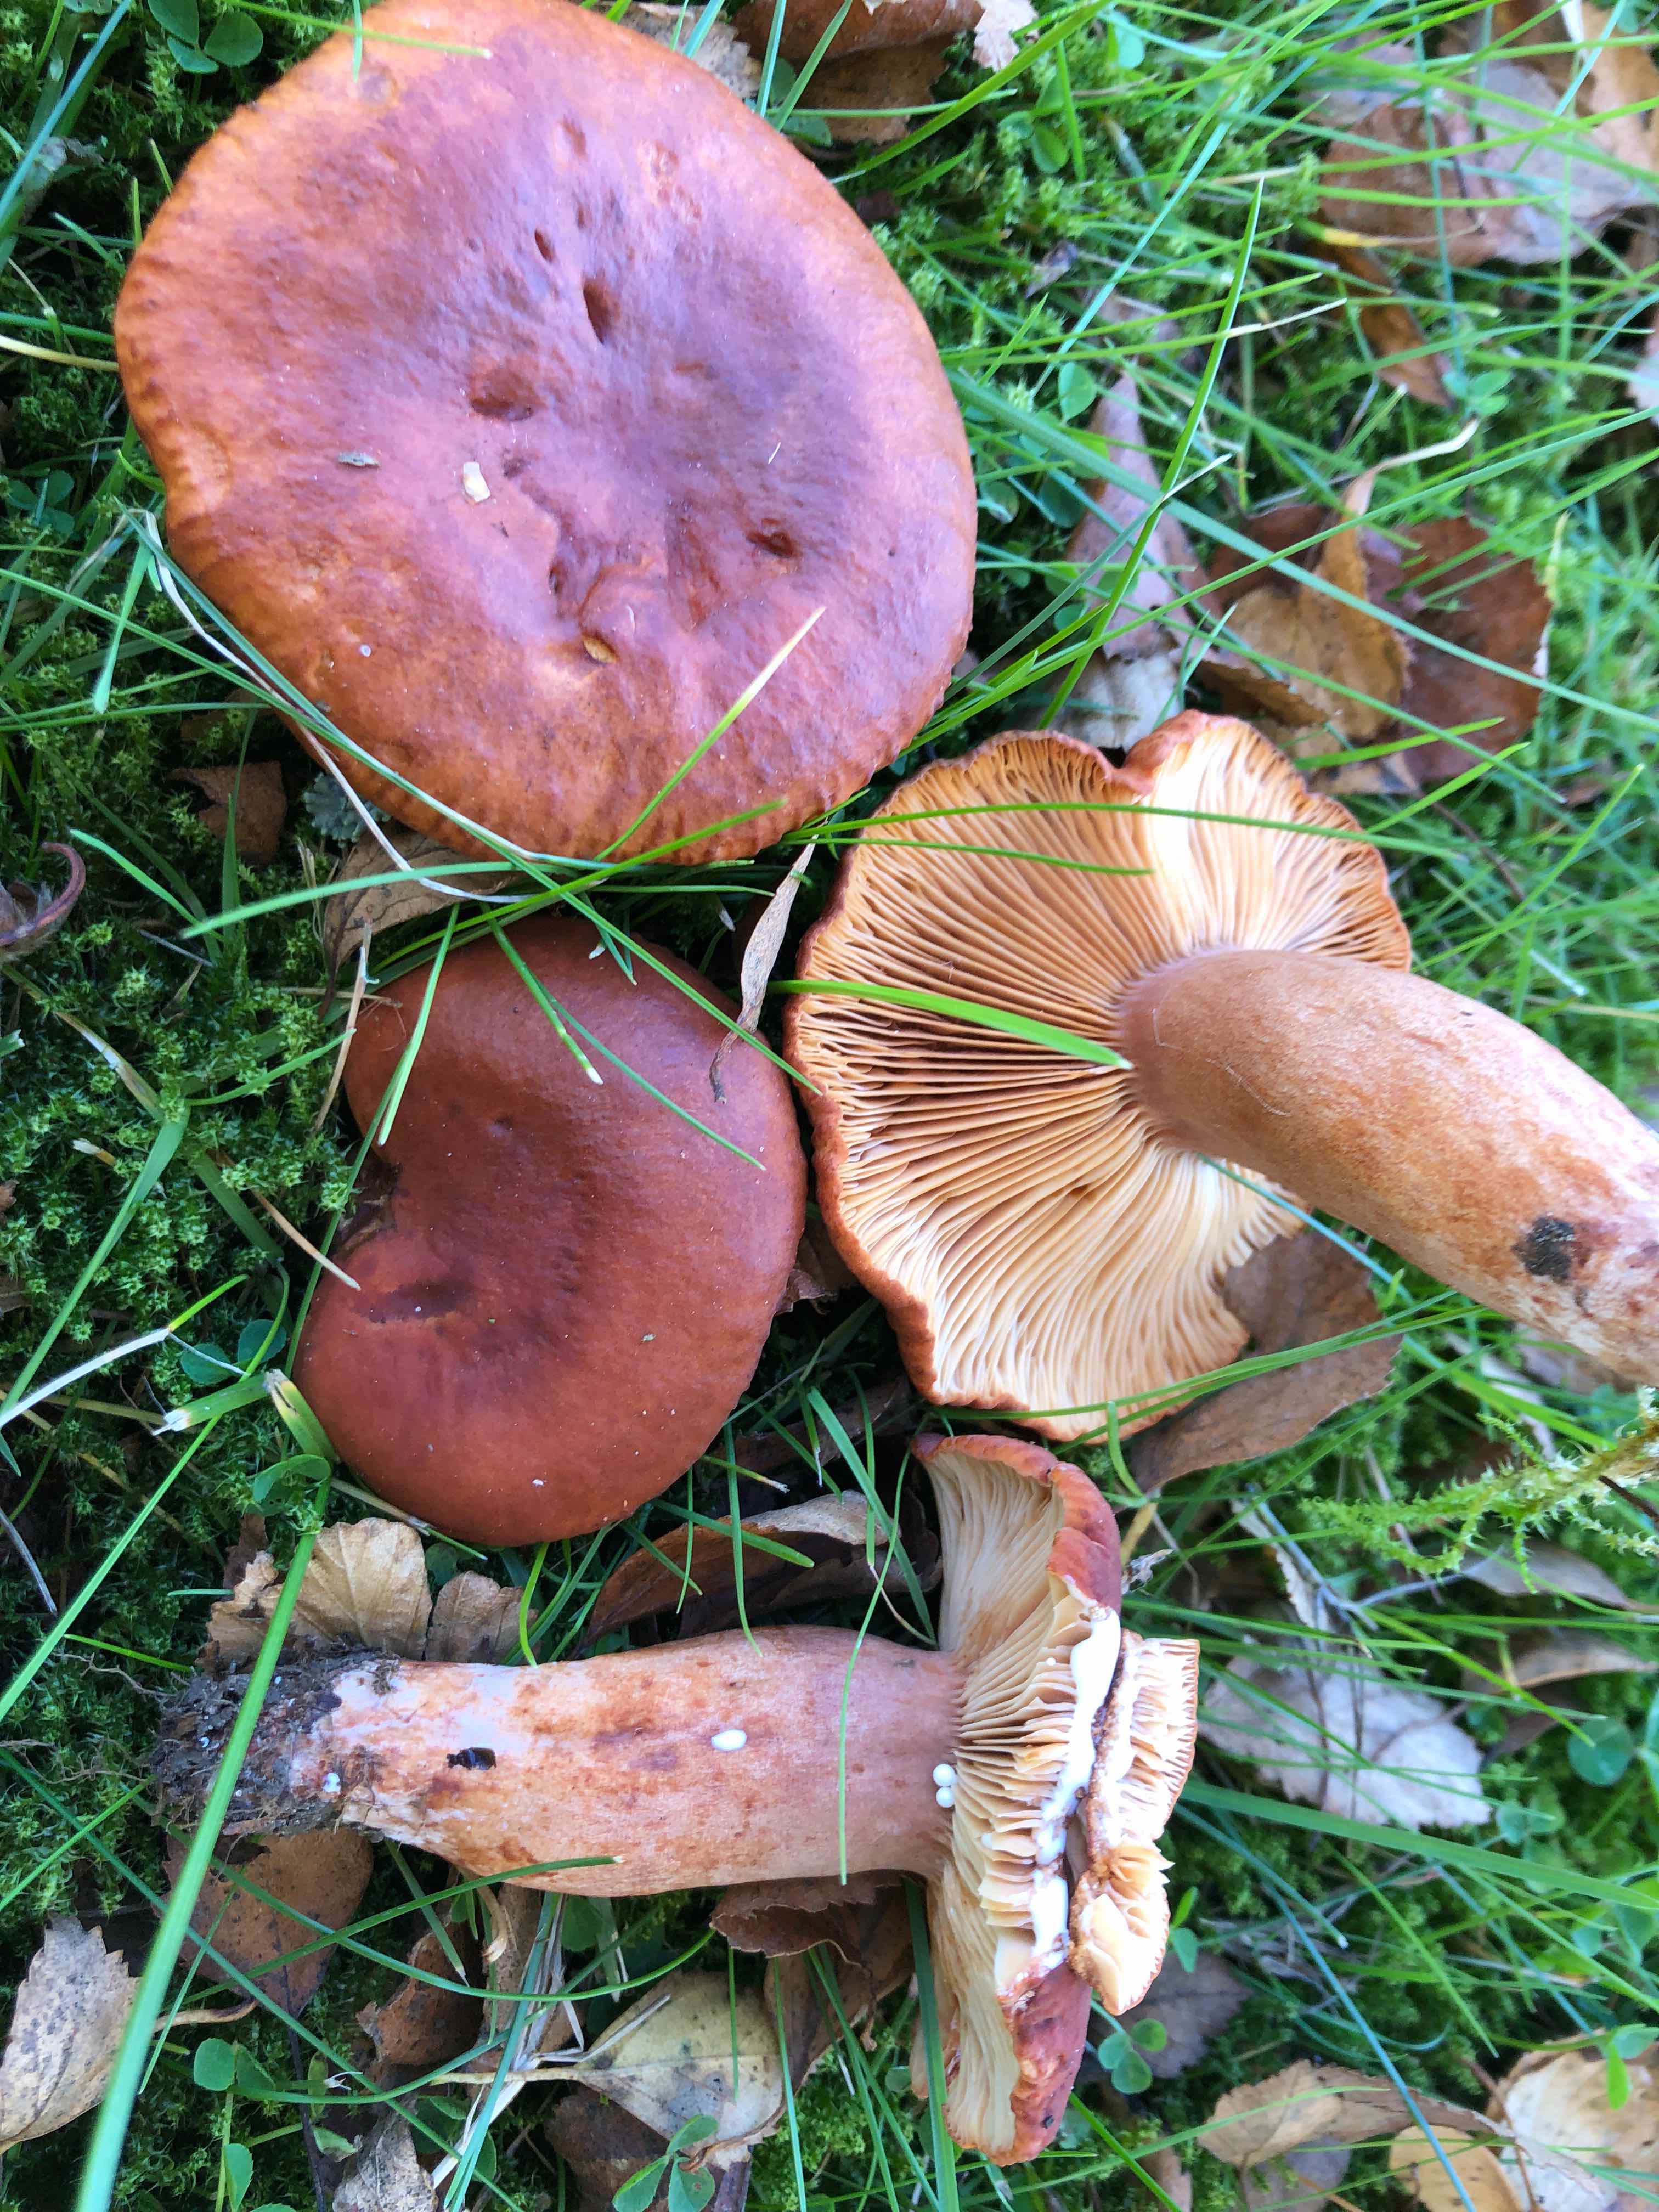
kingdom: Fungi
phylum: Basidiomycota
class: Agaricomycetes
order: Russulales
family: Russulaceae
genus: Lactarius
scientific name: Lactarius fulvissimus
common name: ræve-mælkehat
